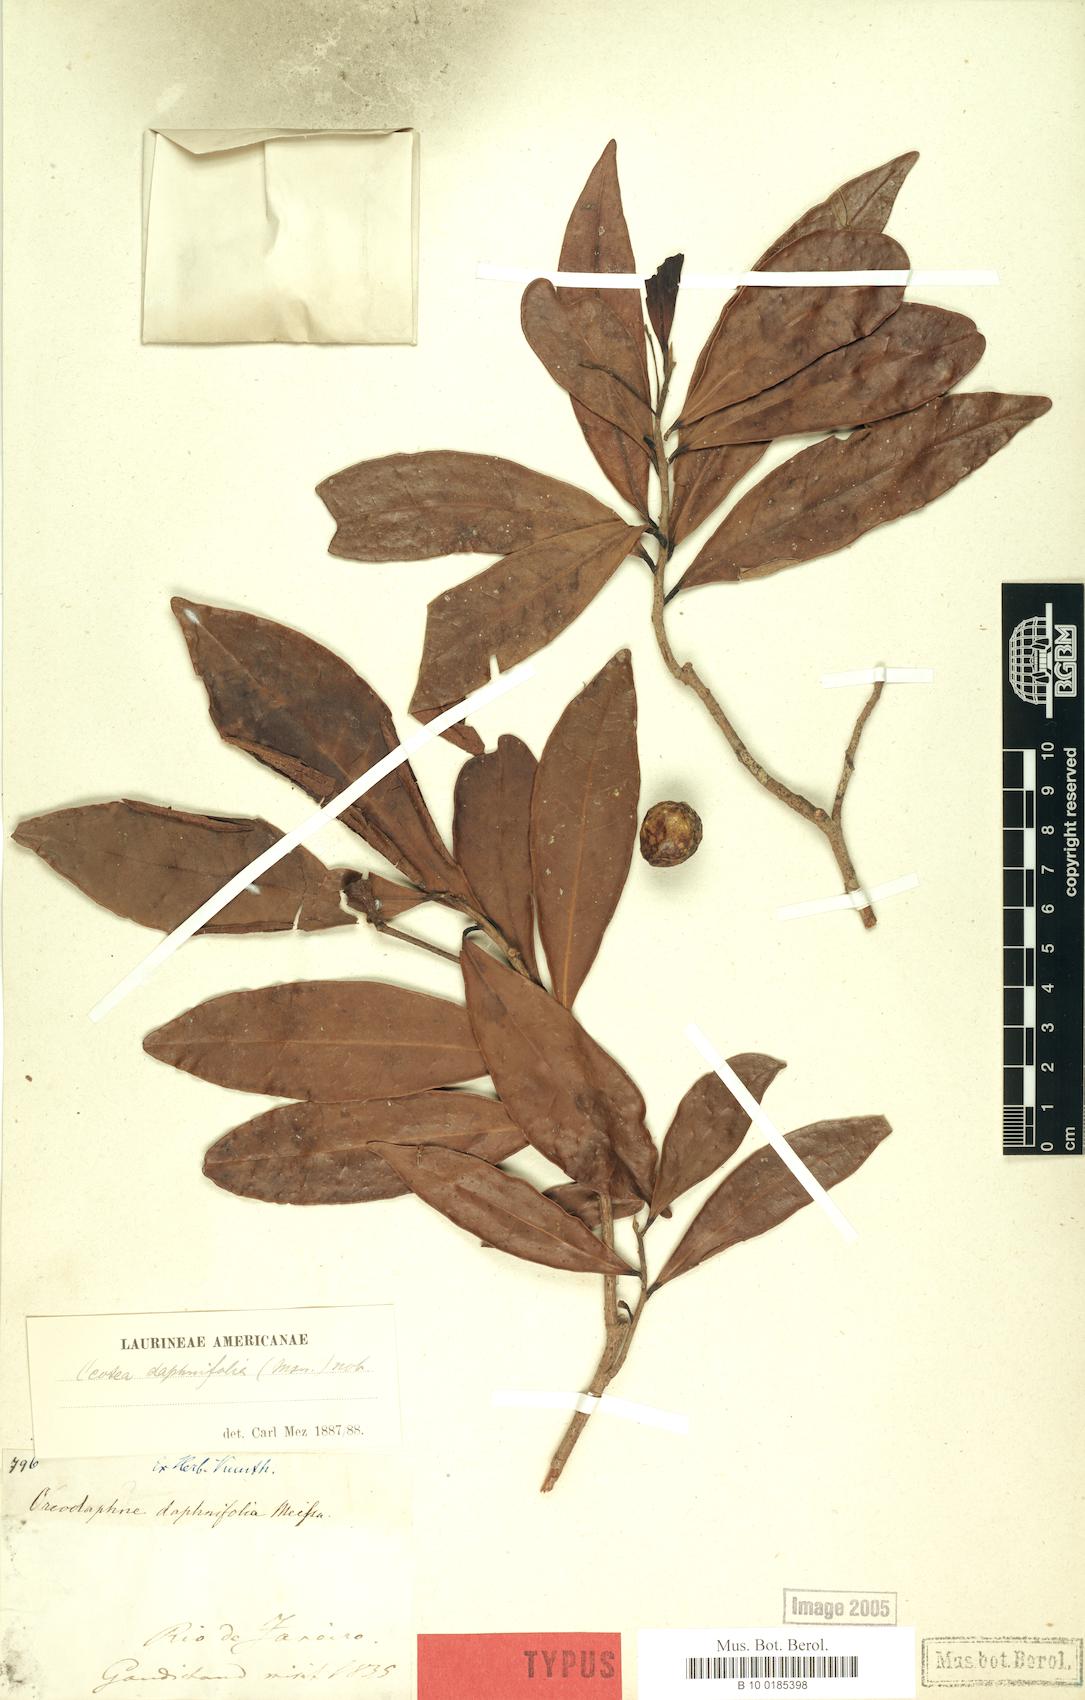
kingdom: Plantae
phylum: Tracheophyta
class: Magnoliopsida
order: Laurales
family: Lauraceae
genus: Ocotea
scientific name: Ocotea daphnifolia
